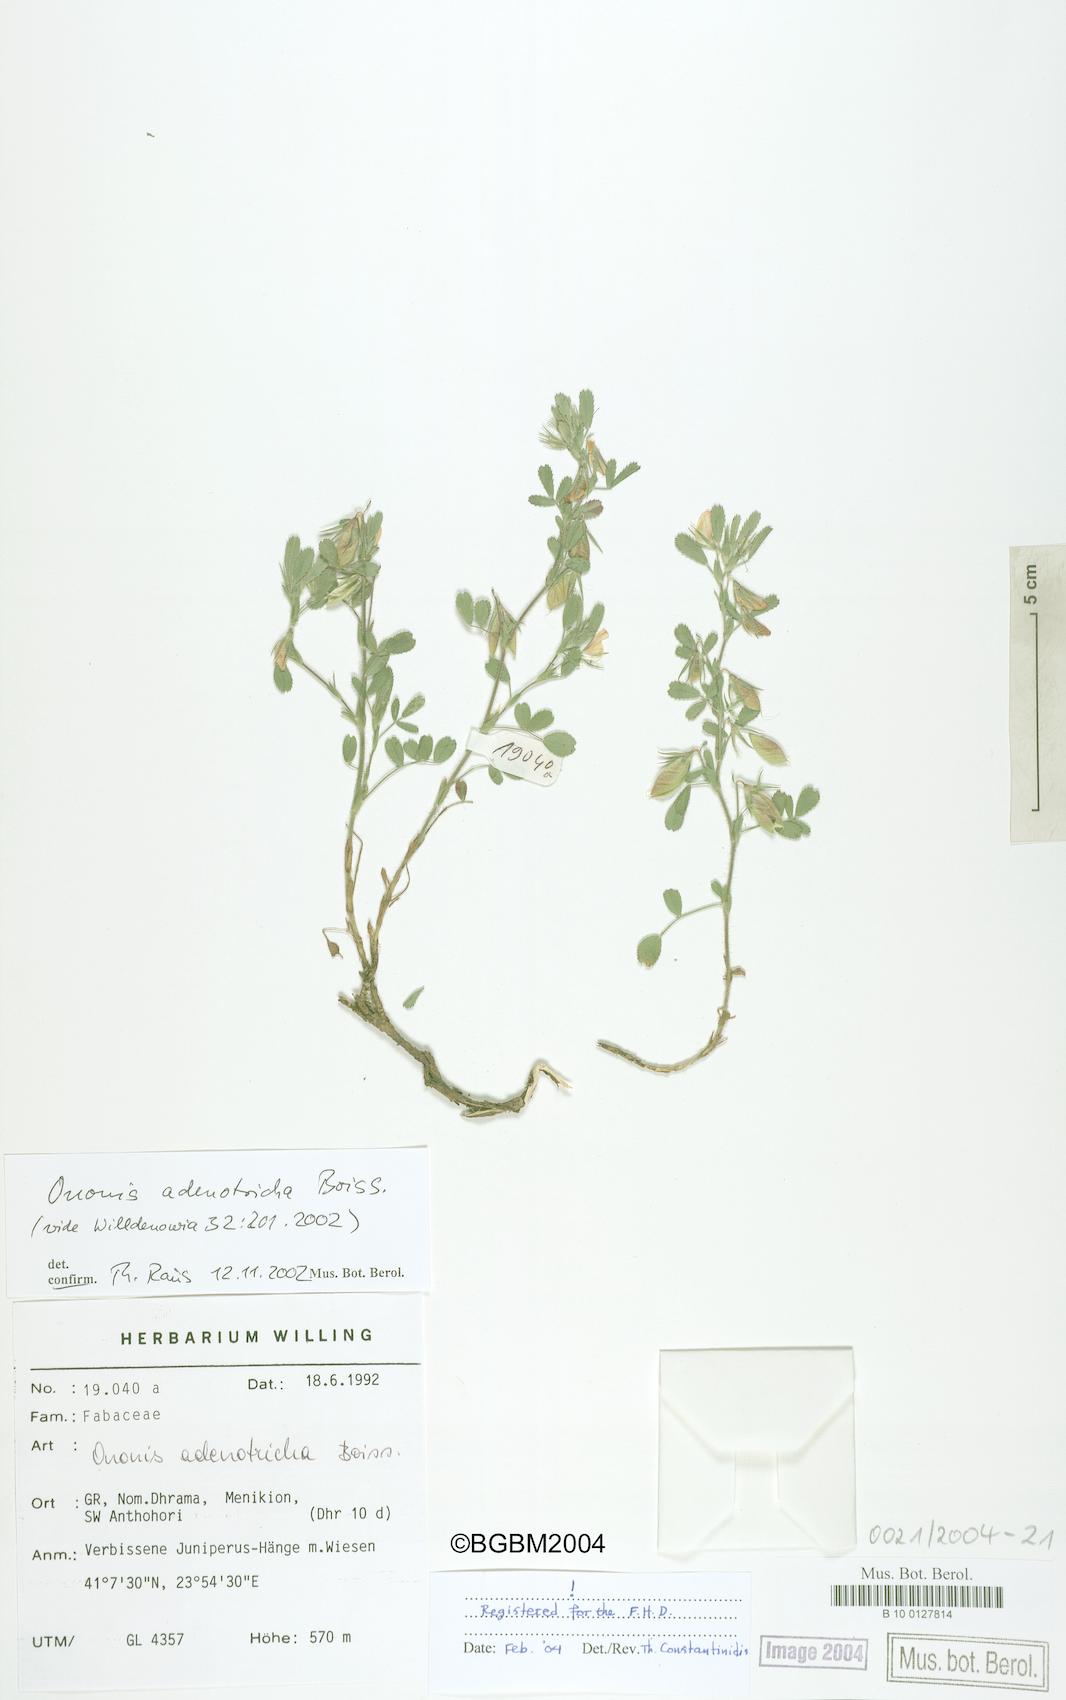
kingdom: Plantae
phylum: Tracheophyta
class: Magnoliopsida
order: Fabales
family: Fabaceae
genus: Ononis
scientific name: Ononis adenotricha
